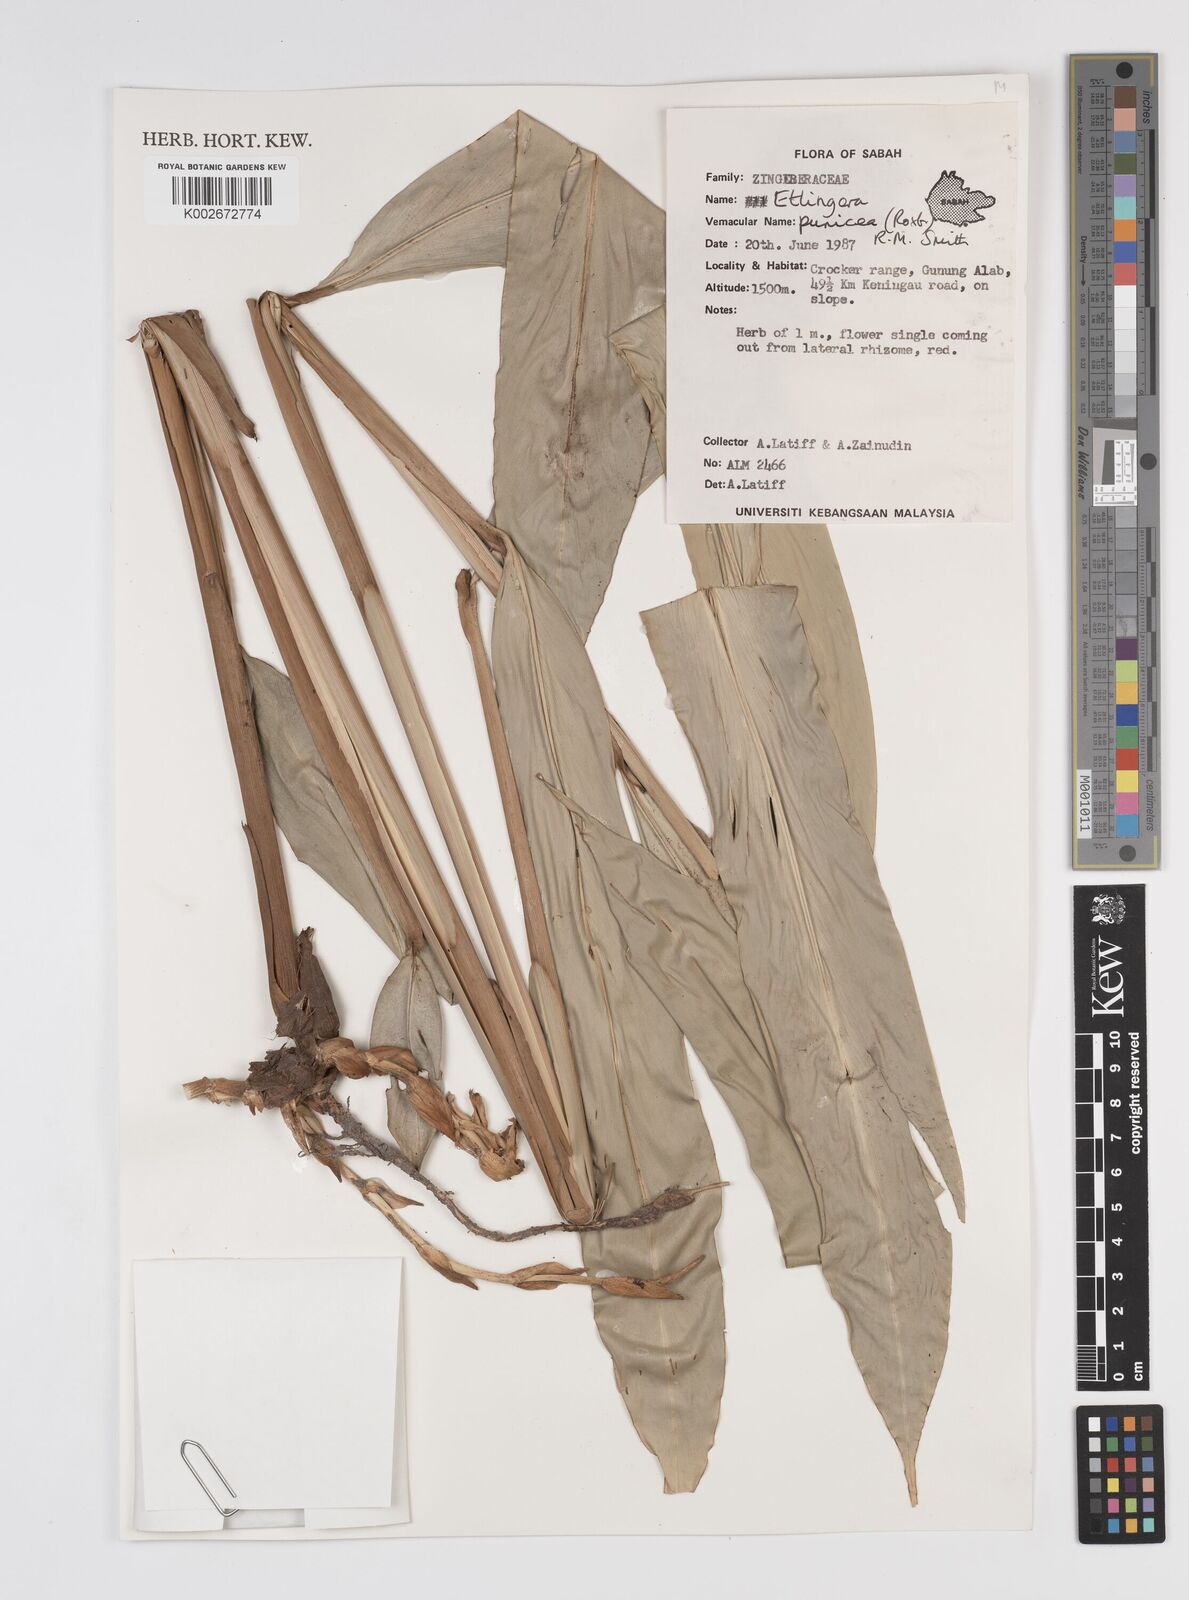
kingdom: Plantae
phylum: Tracheophyta
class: Liliopsida
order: Zingiberales
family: Zingiberaceae
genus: Etlingera
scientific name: Etlingera punicea
